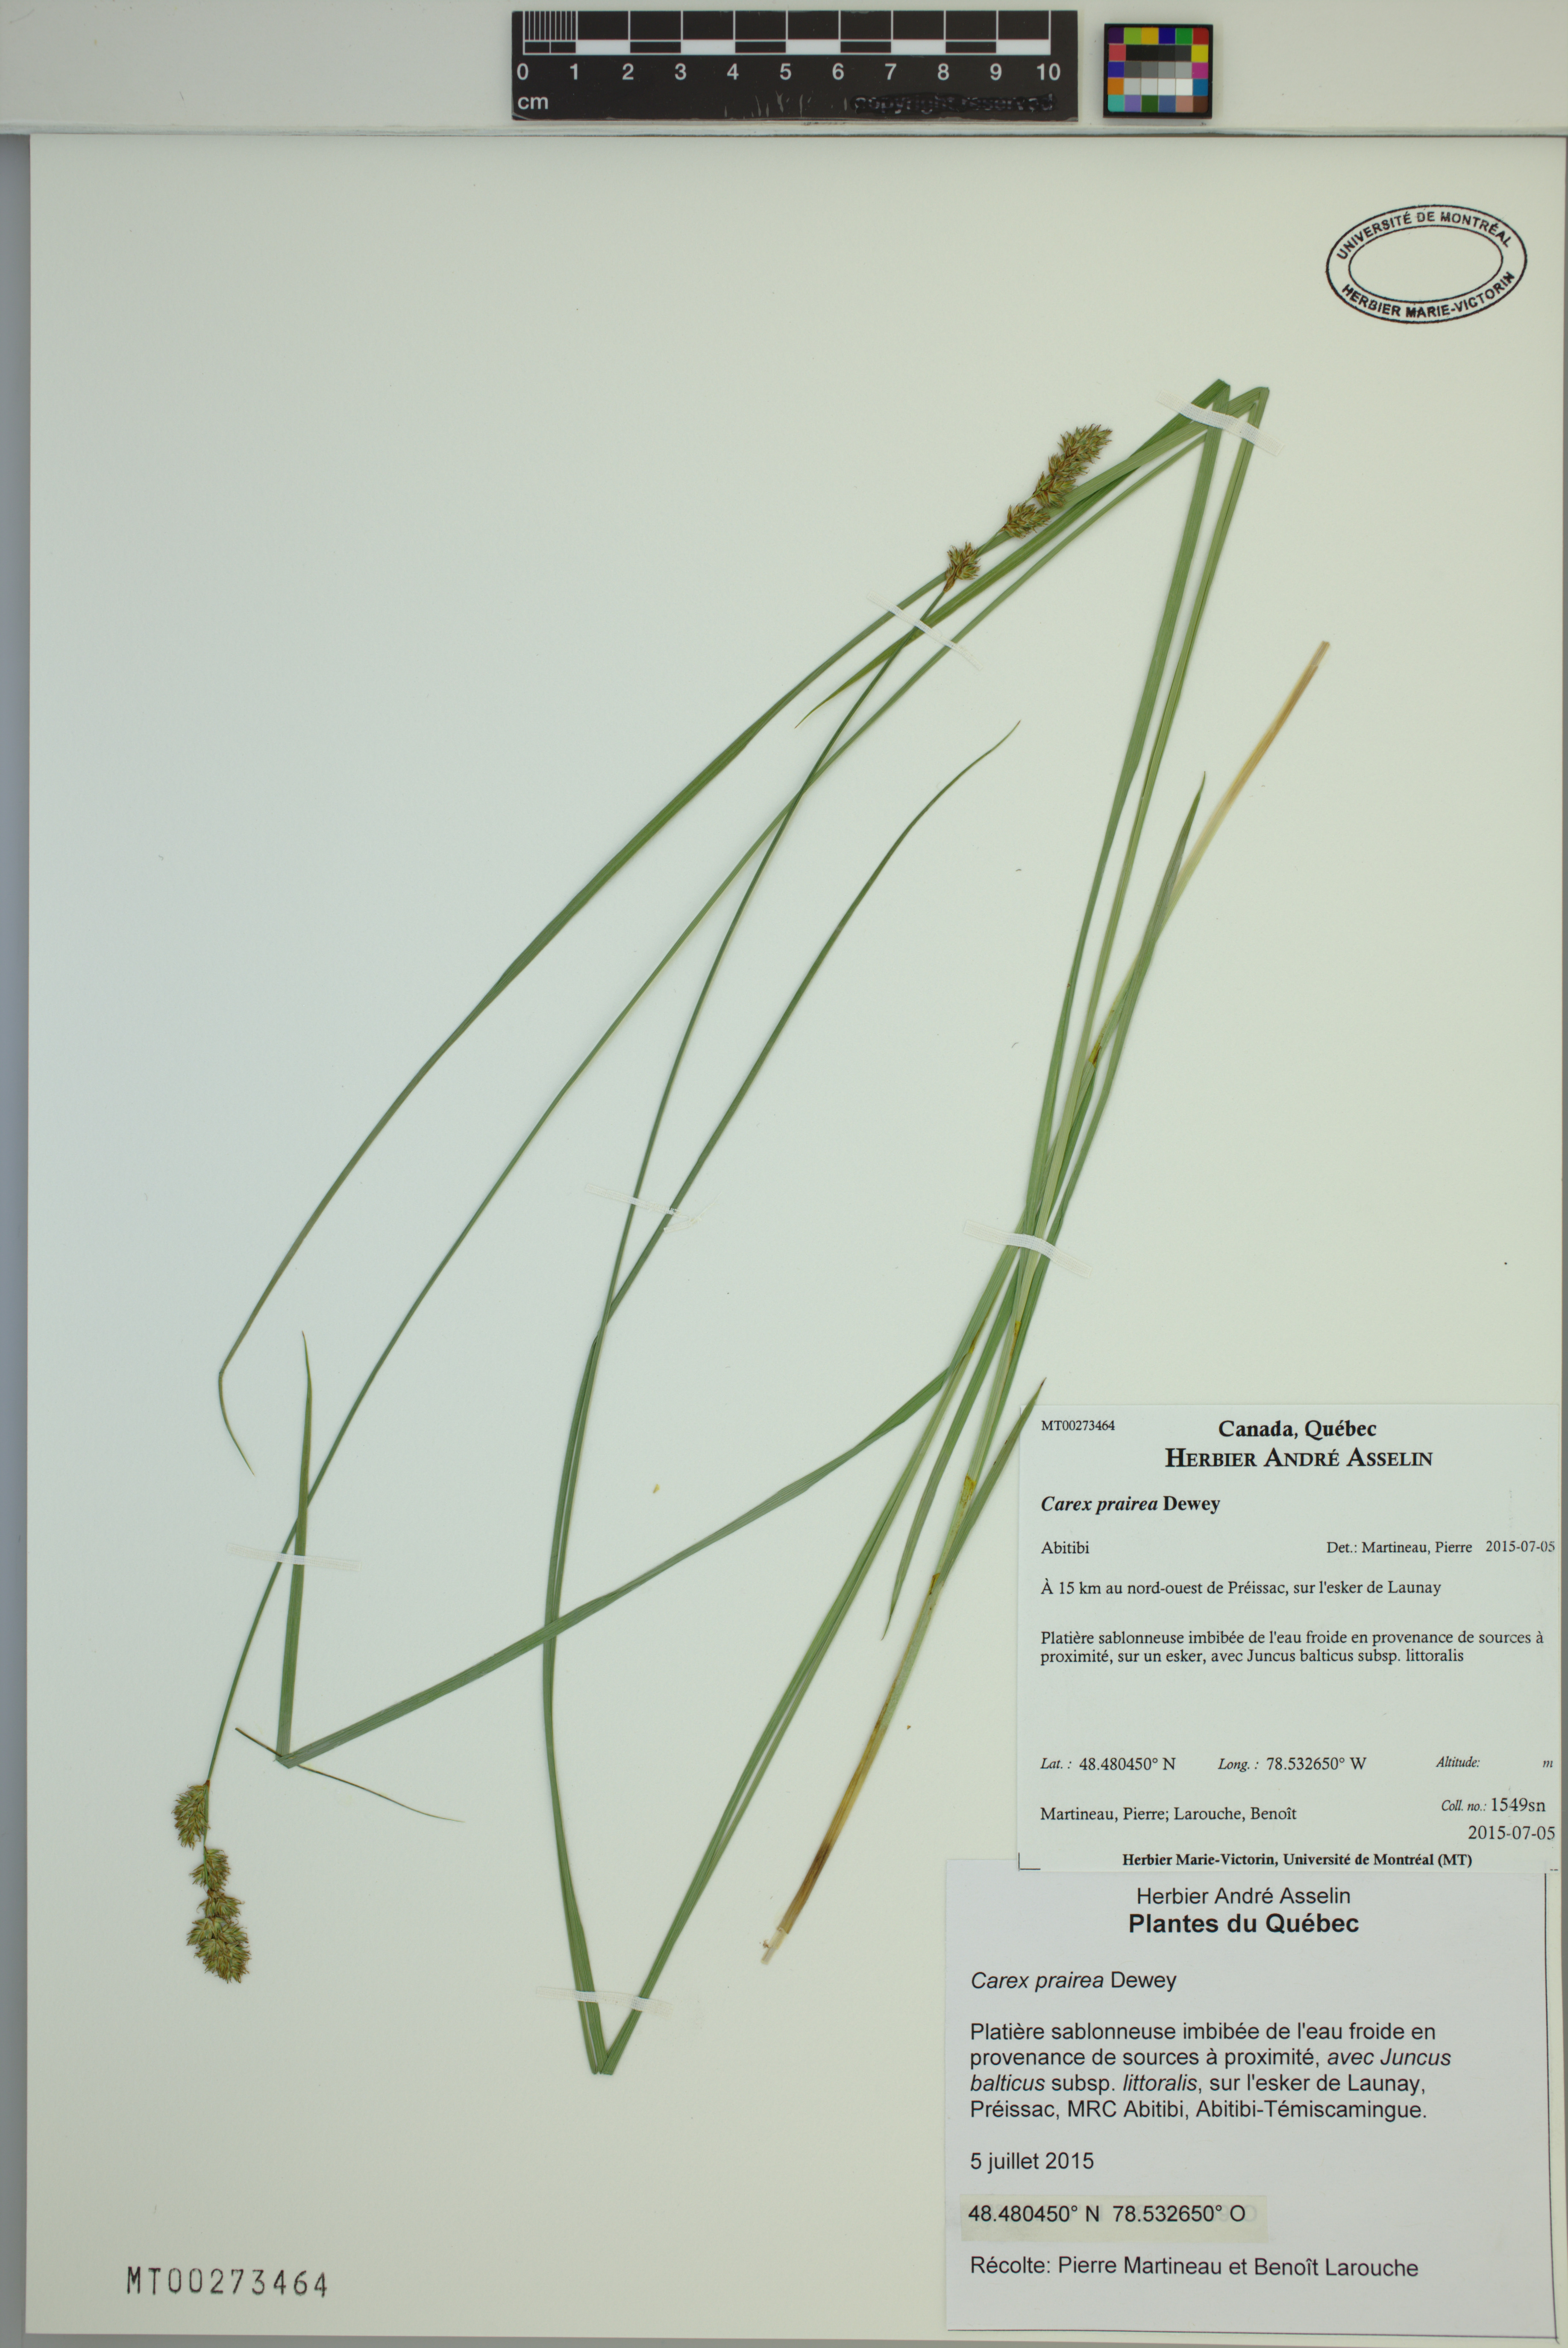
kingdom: Plantae
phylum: Tracheophyta
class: Liliopsida
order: Poales
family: Cyperaceae
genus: Carex
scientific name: Carex prairea
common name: Prairie sedge
